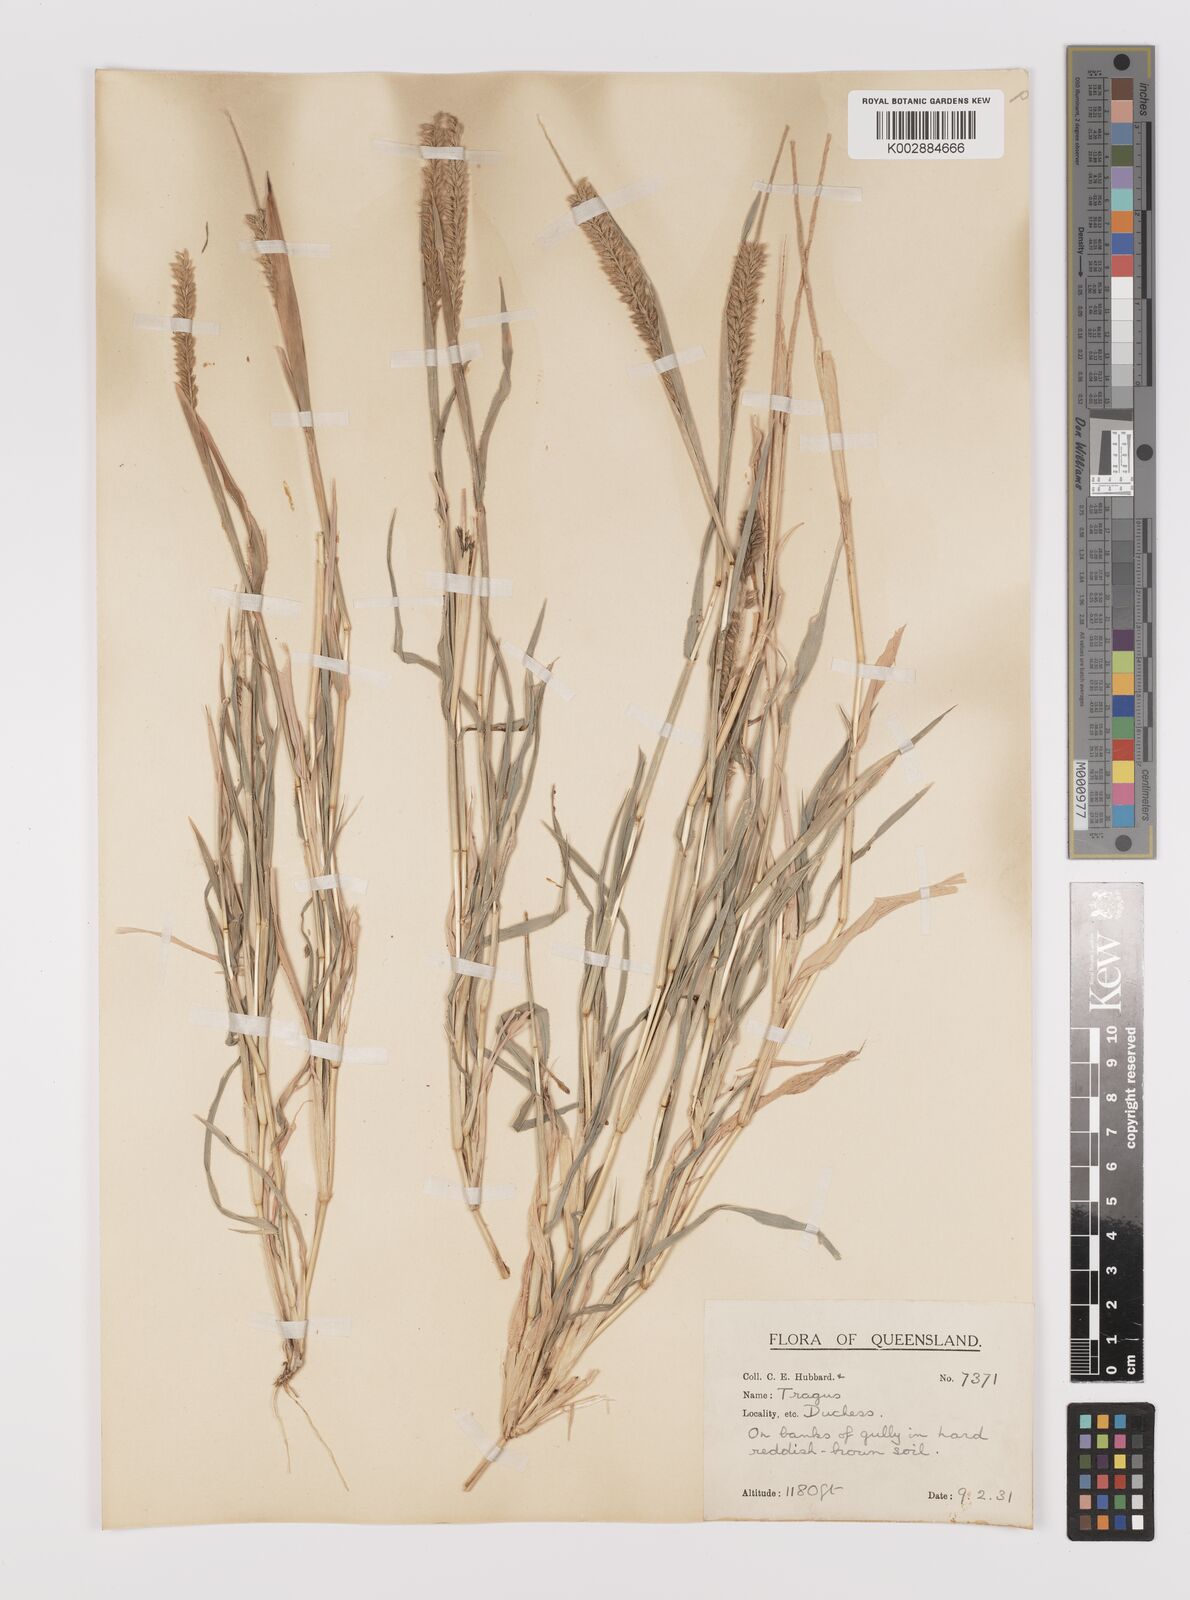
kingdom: Plantae
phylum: Tracheophyta
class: Liliopsida
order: Poales
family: Poaceae
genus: Tragus
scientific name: Tragus australianus
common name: Australian bur-grass
